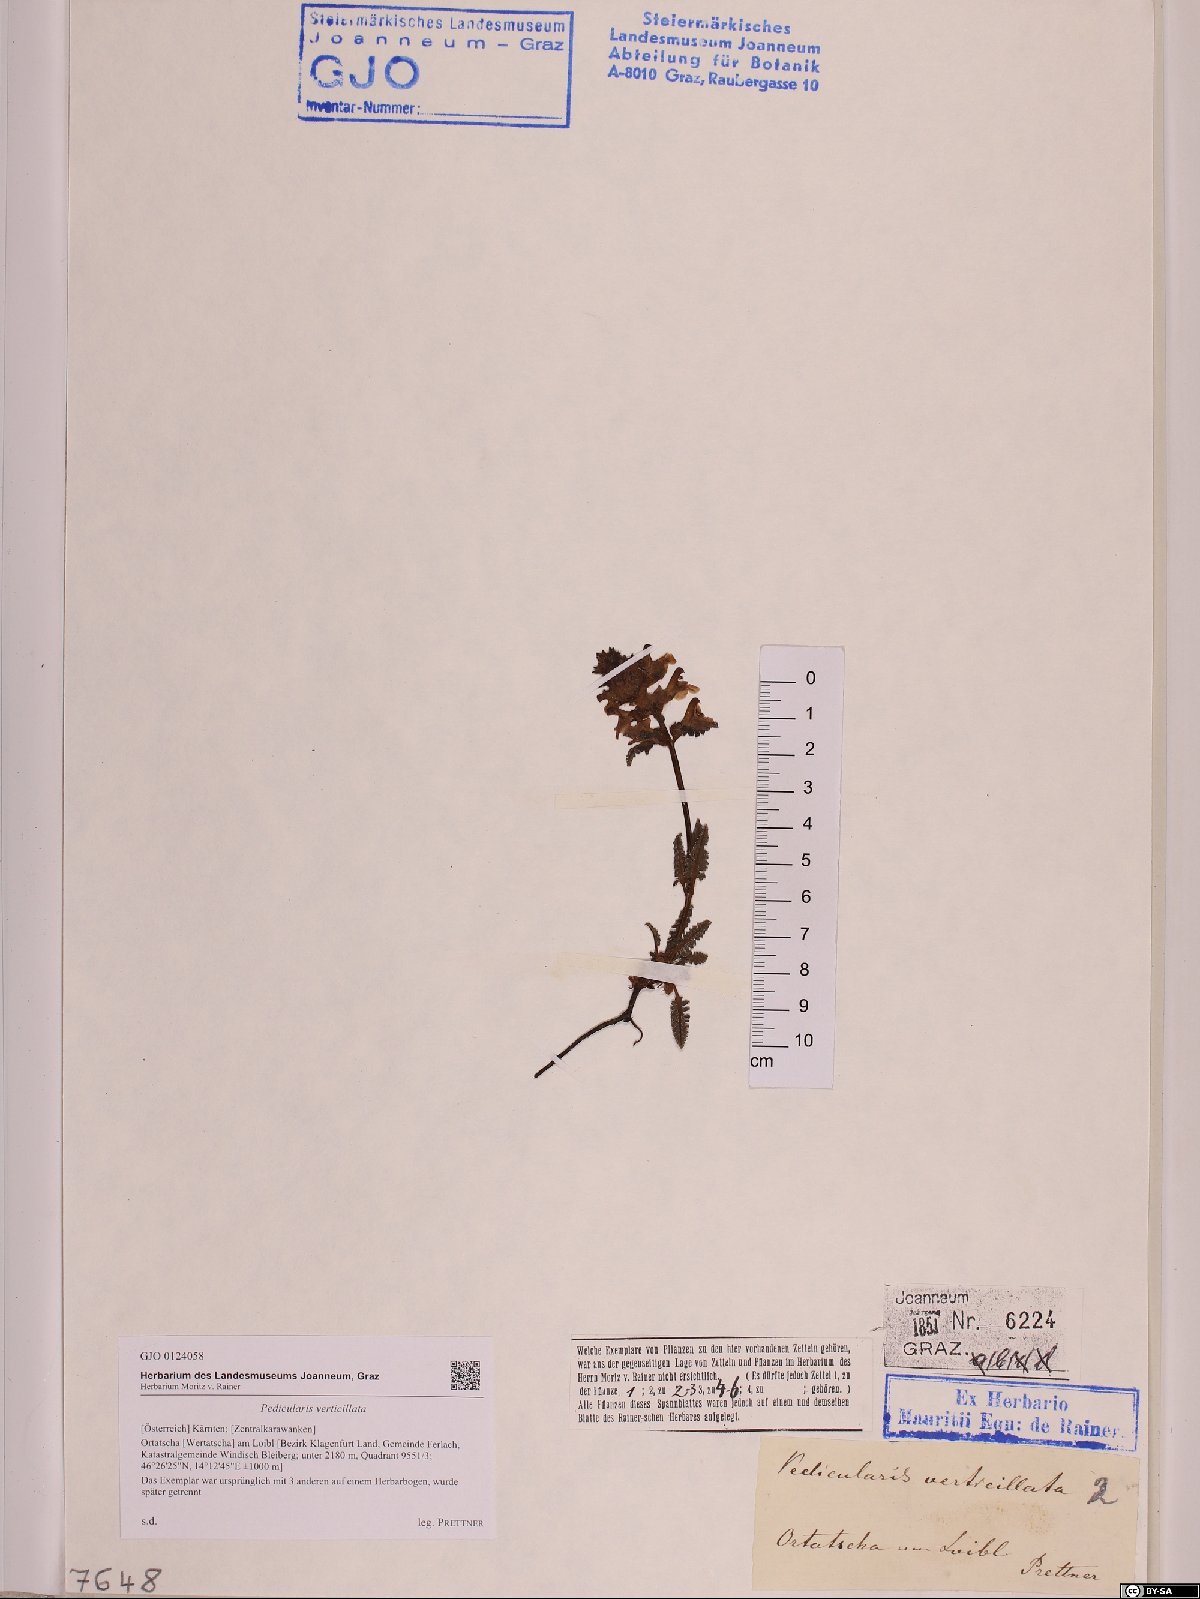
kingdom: Plantae
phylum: Tracheophyta
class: Magnoliopsida
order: Lamiales
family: Orobanchaceae
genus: Pedicularis
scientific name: Pedicularis verticillata
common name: Whorled lousewort
